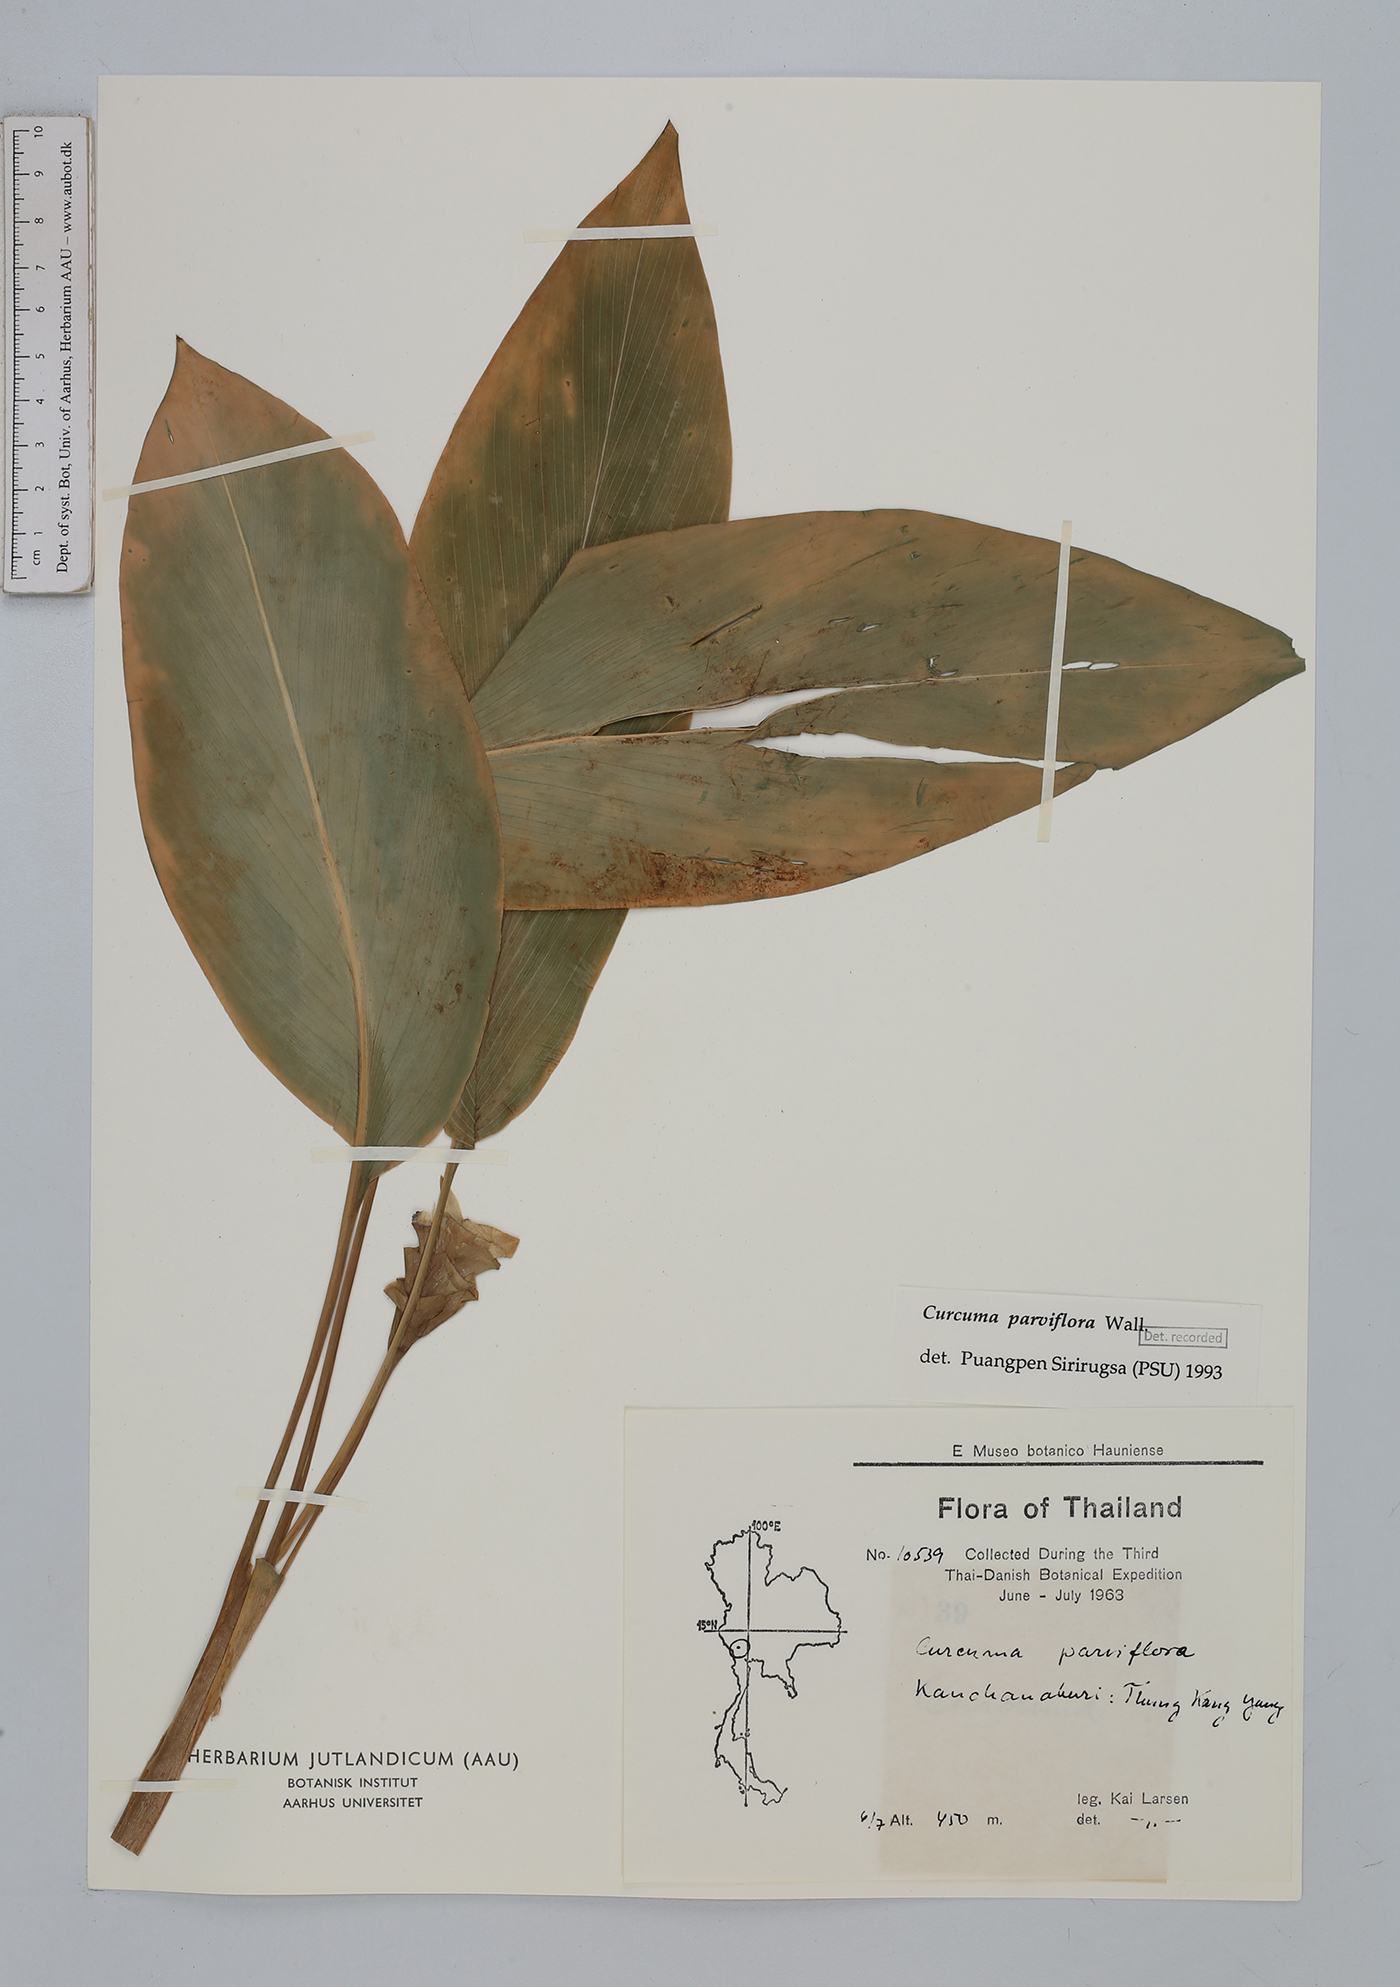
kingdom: Plantae
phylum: Tracheophyta
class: Liliopsida
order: Zingiberales
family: Zingiberaceae
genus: Curcuma
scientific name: Curcuma parviflora
